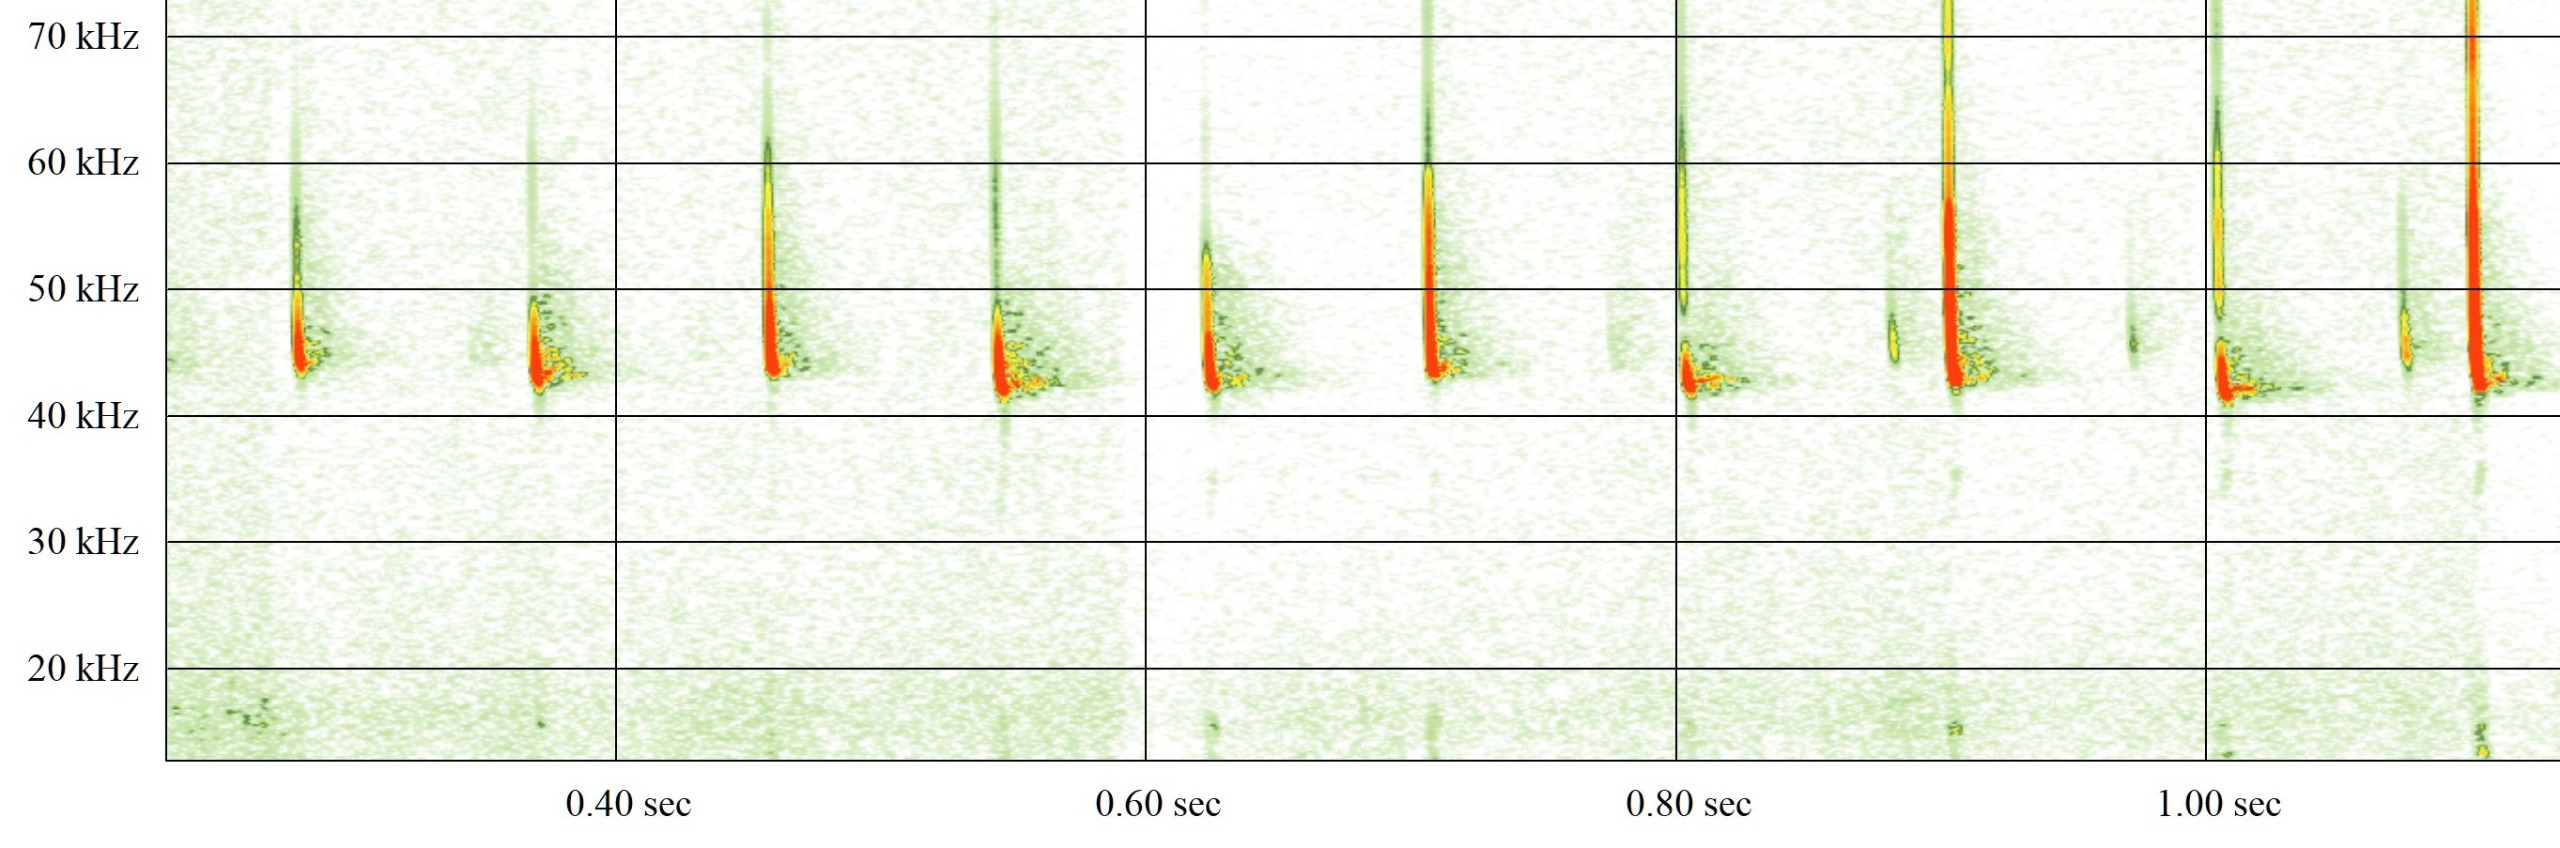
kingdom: Animalia
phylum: Chordata
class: Mammalia
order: Chiroptera
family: Vespertilionidae
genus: Pipistrellus
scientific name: Pipistrellus nathusii
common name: Troldflagermus
